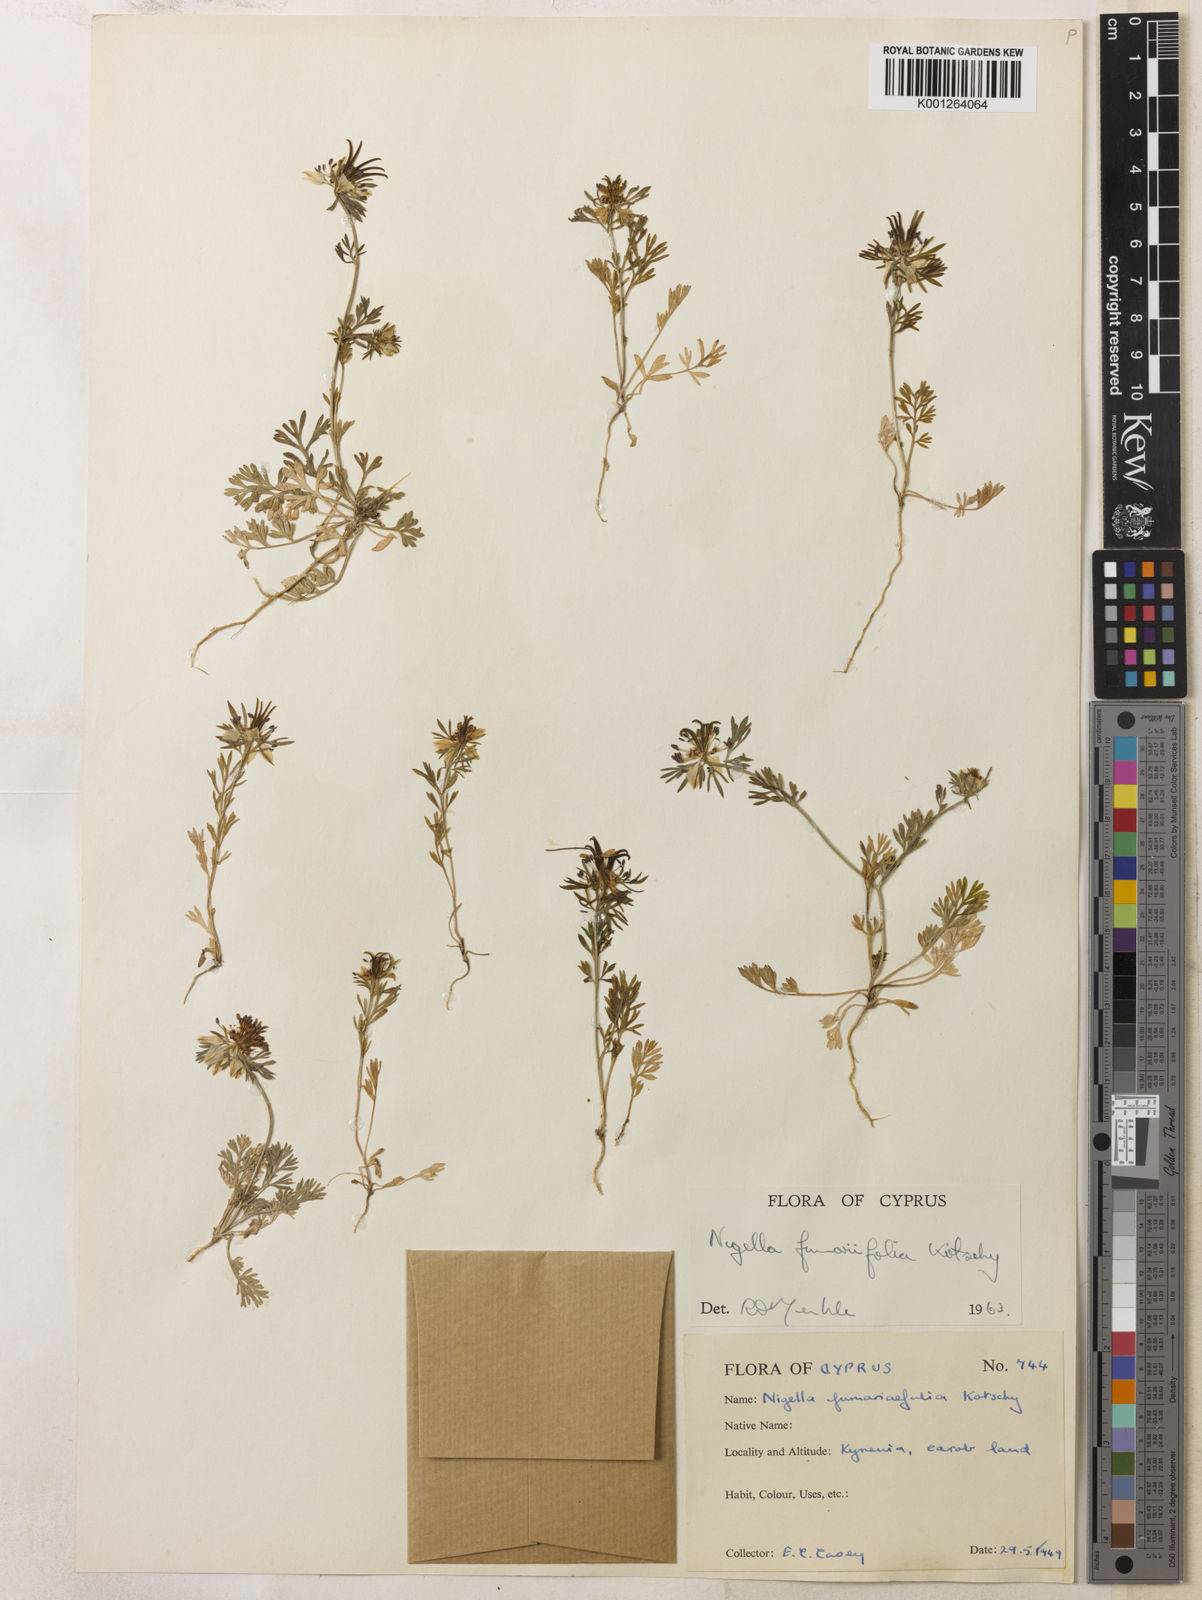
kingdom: Plantae
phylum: Tracheophyta
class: Magnoliopsida
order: Ranunculales
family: Ranunculaceae
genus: Nigella
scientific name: Nigella
